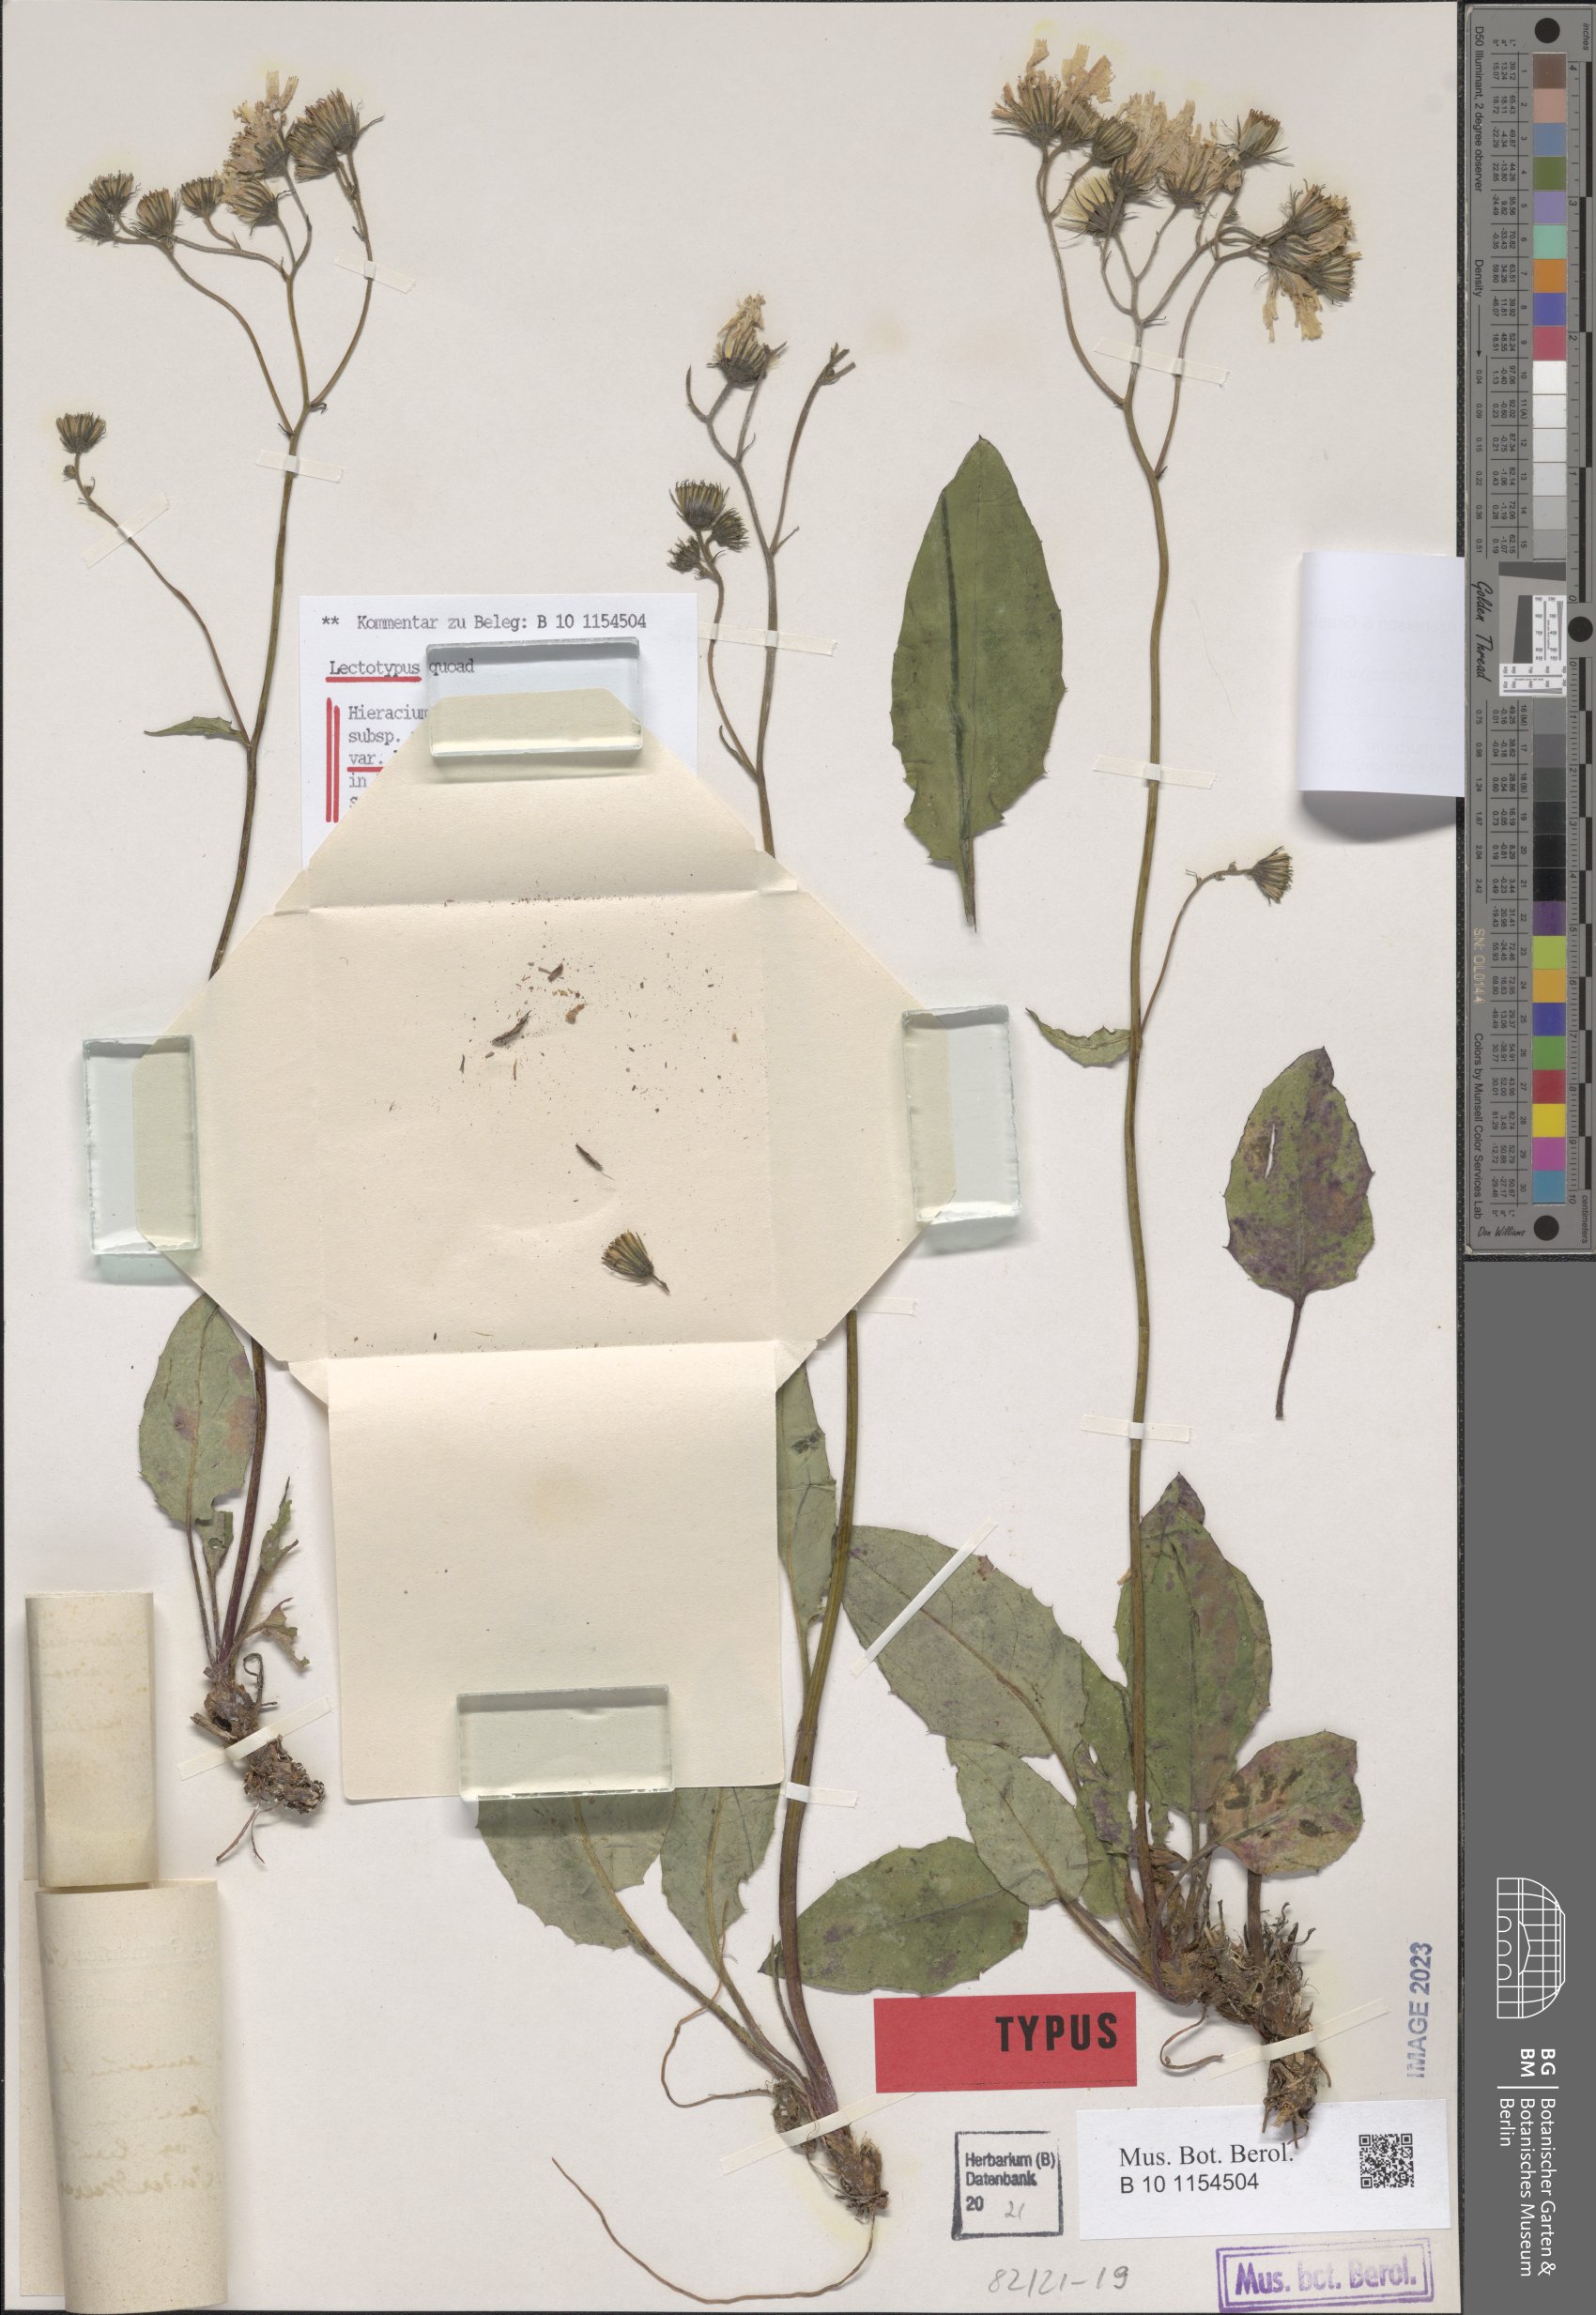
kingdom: Plantae
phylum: Tracheophyta
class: Magnoliopsida
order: Asterales
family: Asteraceae
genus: Hieracium
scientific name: Hieracium murorum
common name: Wall hawkweed
